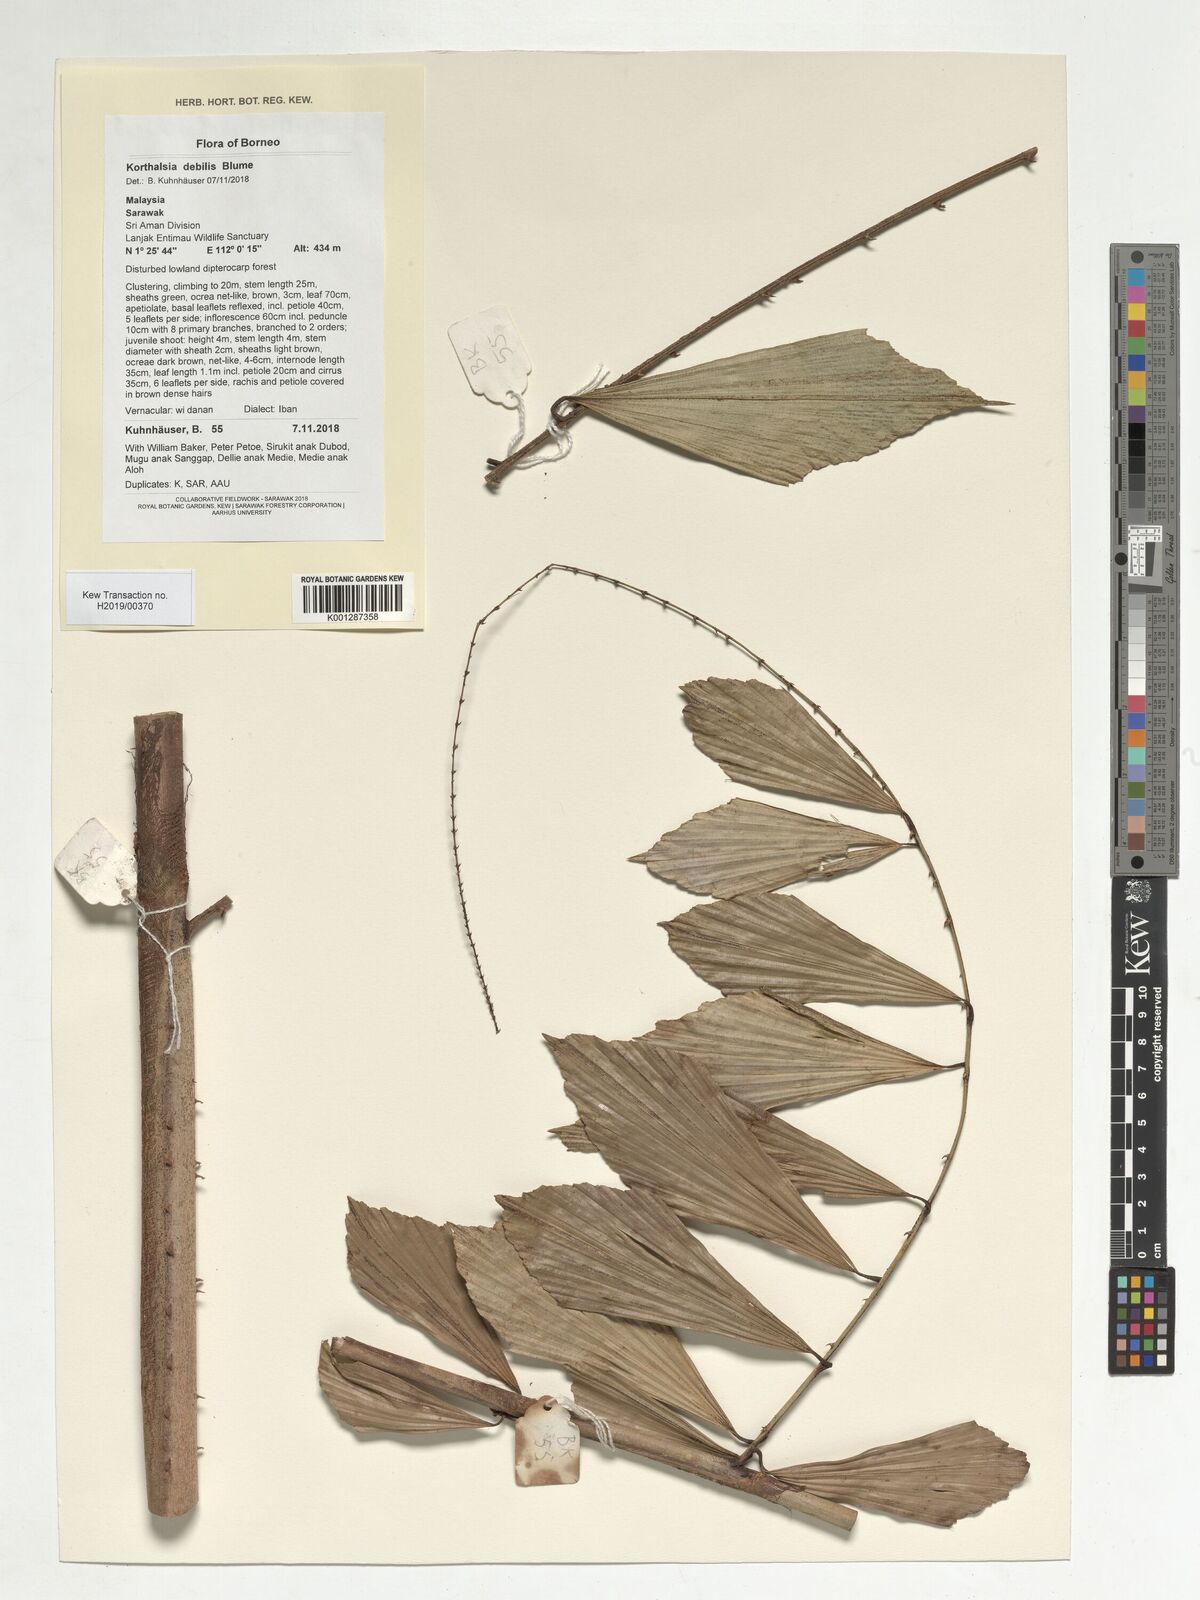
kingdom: Plantae
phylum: Tracheophyta
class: Liliopsida
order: Arecales
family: Arecaceae
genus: Korthalsia
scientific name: Korthalsia debilis
